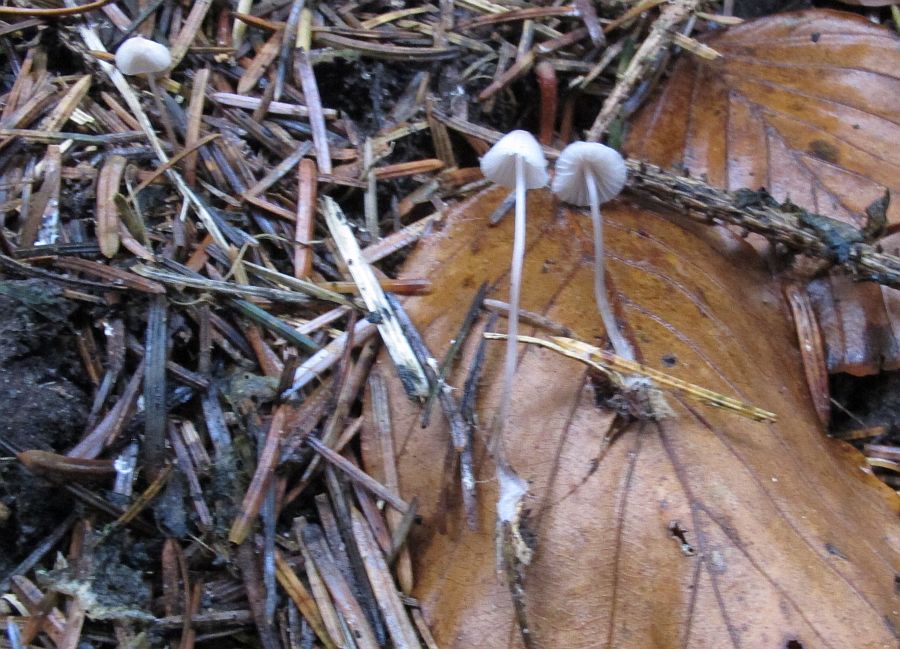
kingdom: Fungi
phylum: Basidiomycota
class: Agaricomycetes
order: Agaricales
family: Mycenaceae
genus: Mycena
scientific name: Mycena capillaripes
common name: nåle-huesvamp
